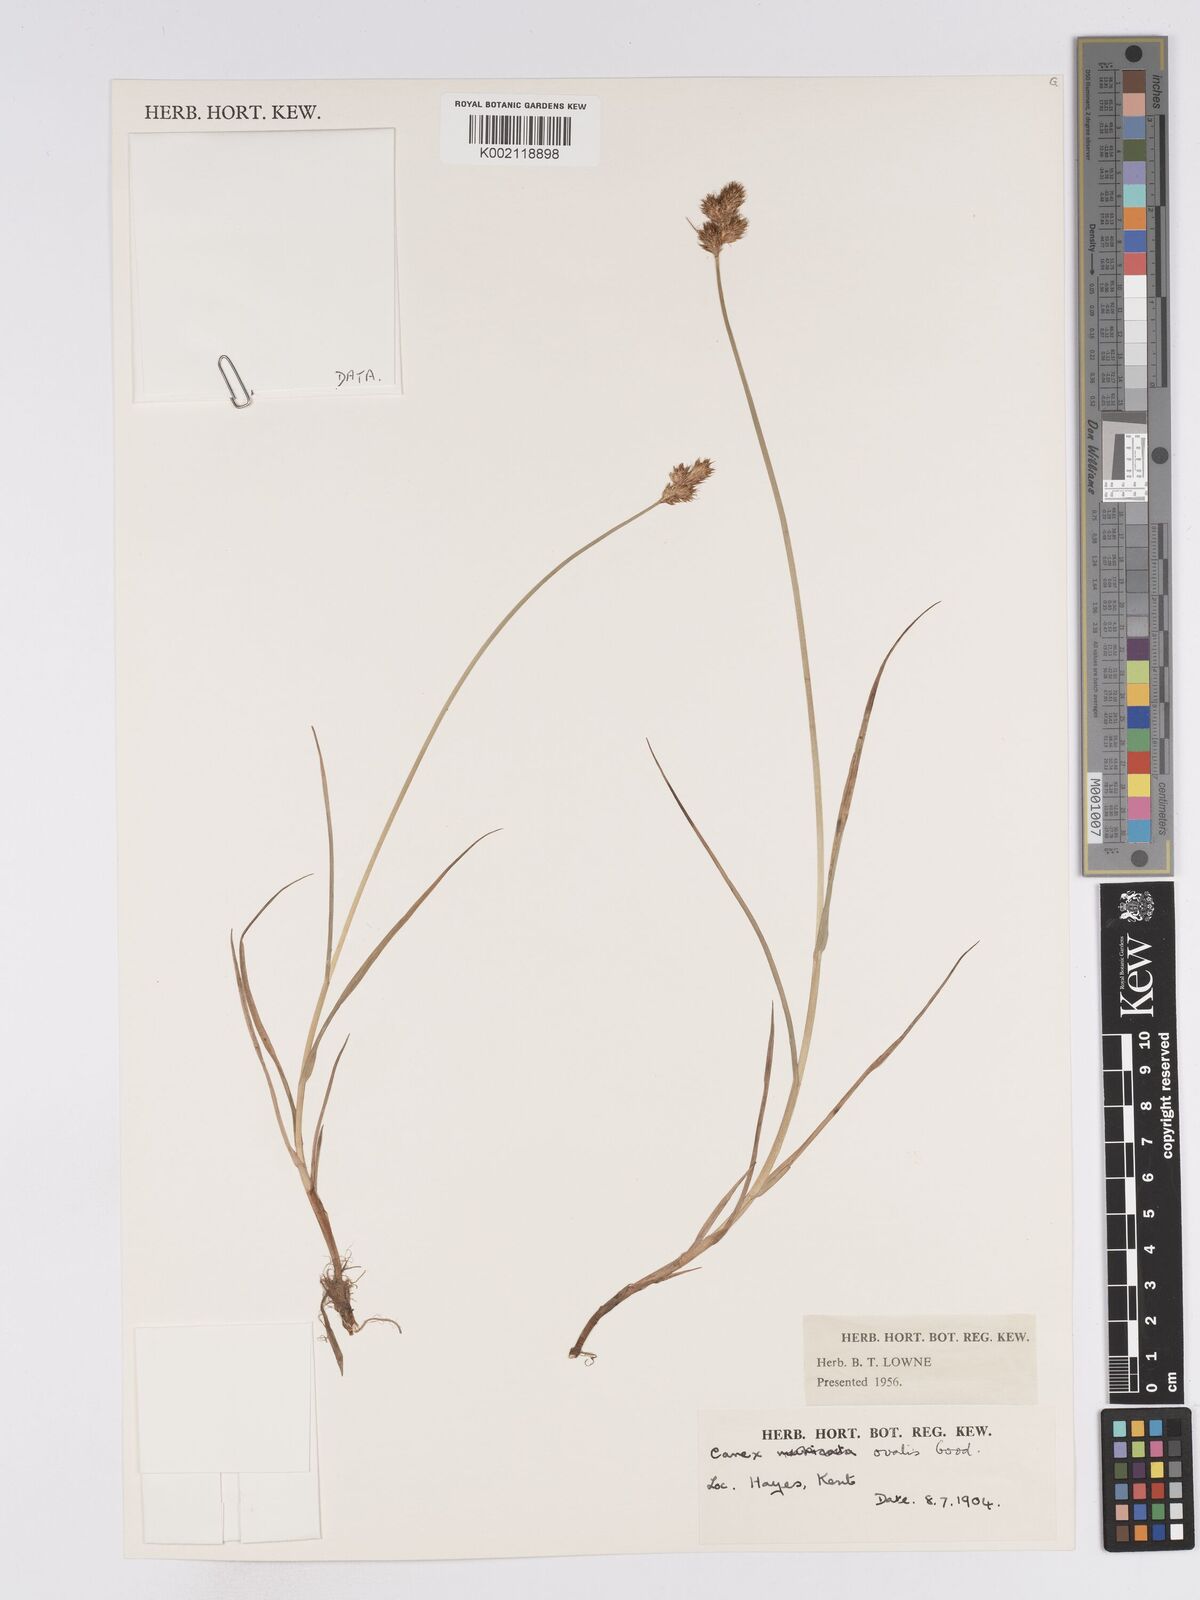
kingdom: Plantae
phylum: Tracheophyta
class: Liliopsida
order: Poales
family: Cyperaceae
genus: Carex
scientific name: Carex leporina
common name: Oval sedge
